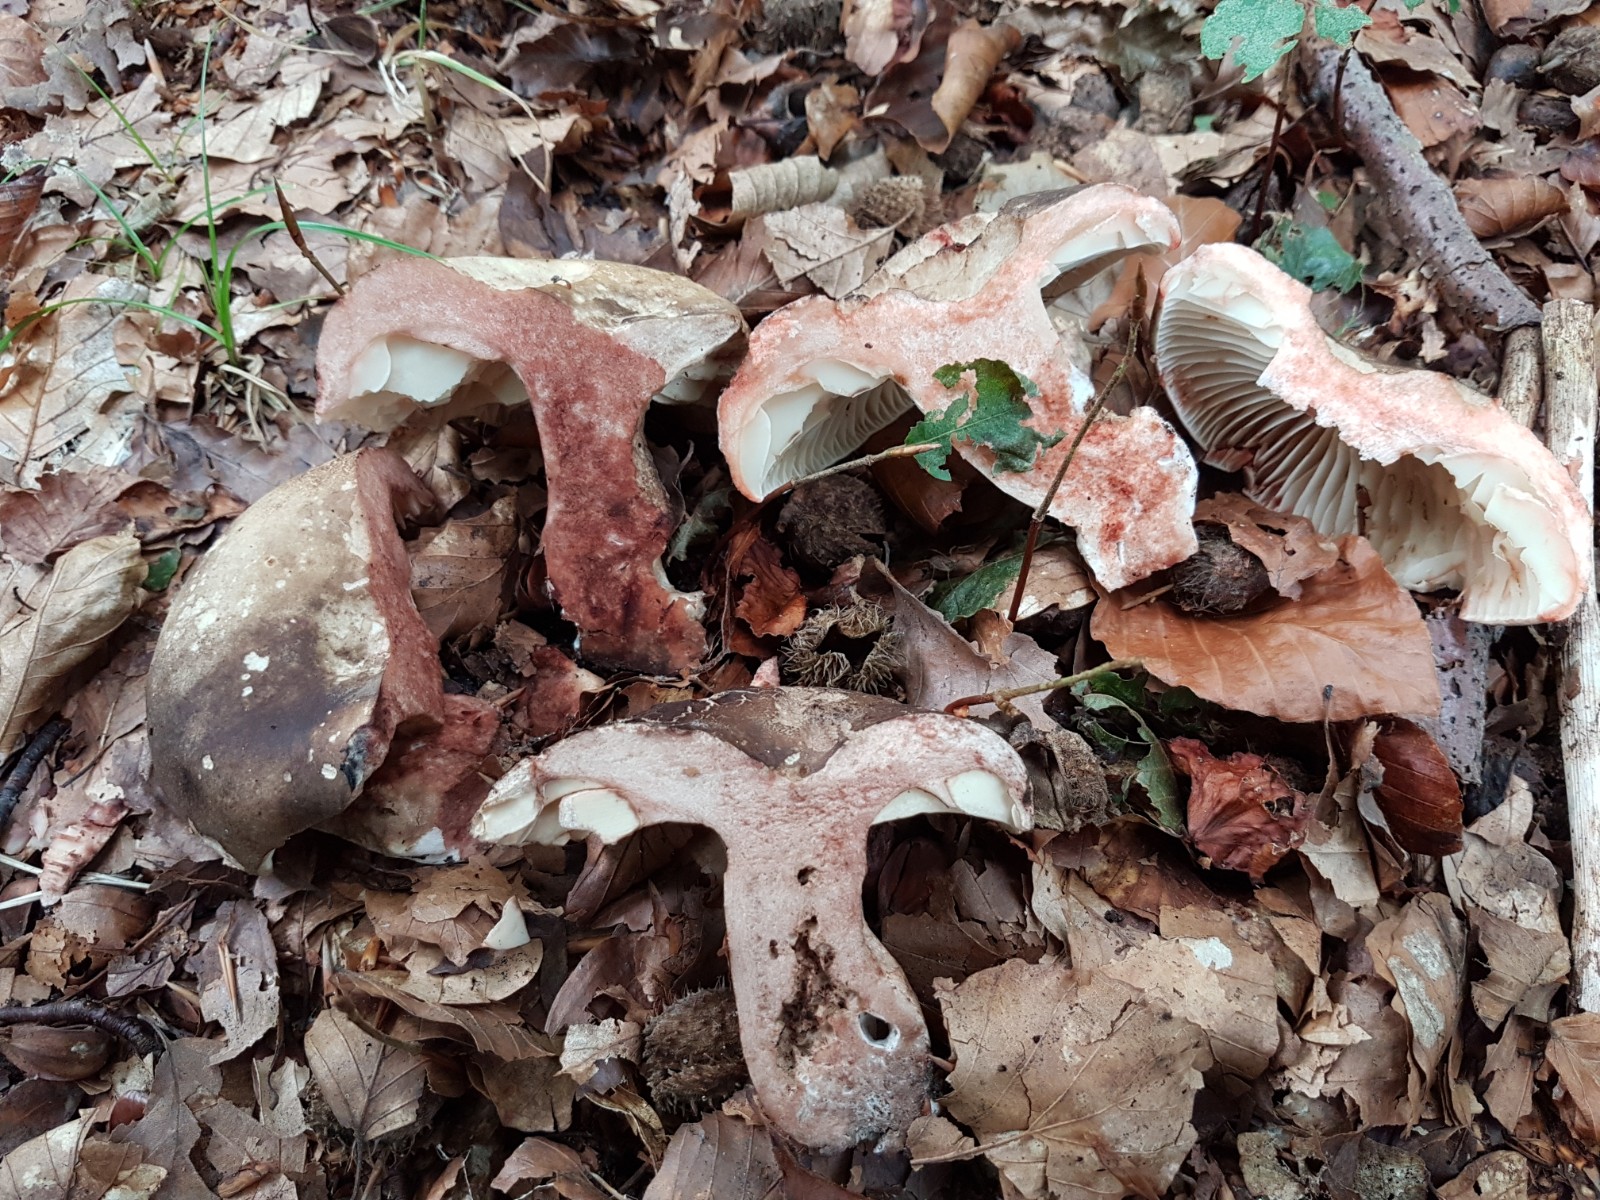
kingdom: Fungi
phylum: Basidiomycota
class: Agaricomycetes
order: Russulales
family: Russulaceae
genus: Russula
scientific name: Russula adusta
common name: sværtende skørhat
